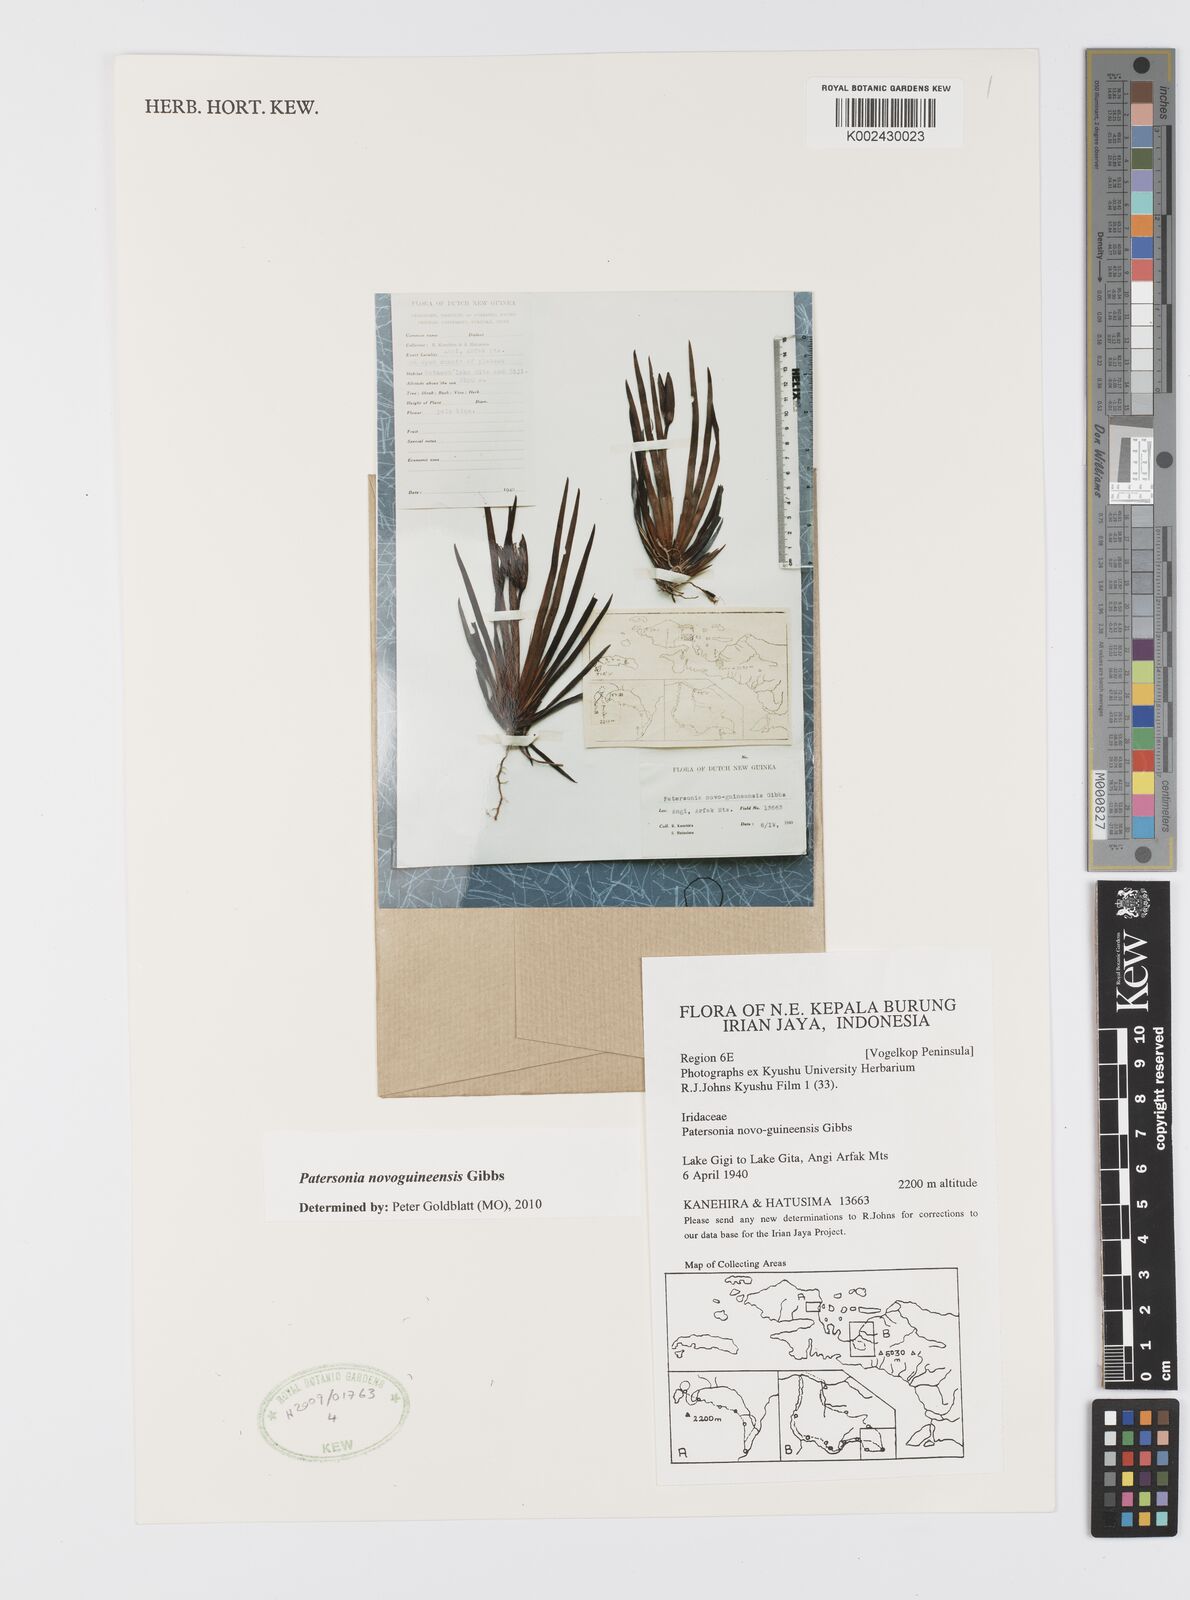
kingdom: Plantae
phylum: Tracheophyta
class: Liliopsida
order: Asparagales
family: Iridaceae
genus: Patersonia
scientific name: Patersonia novoguineensis
